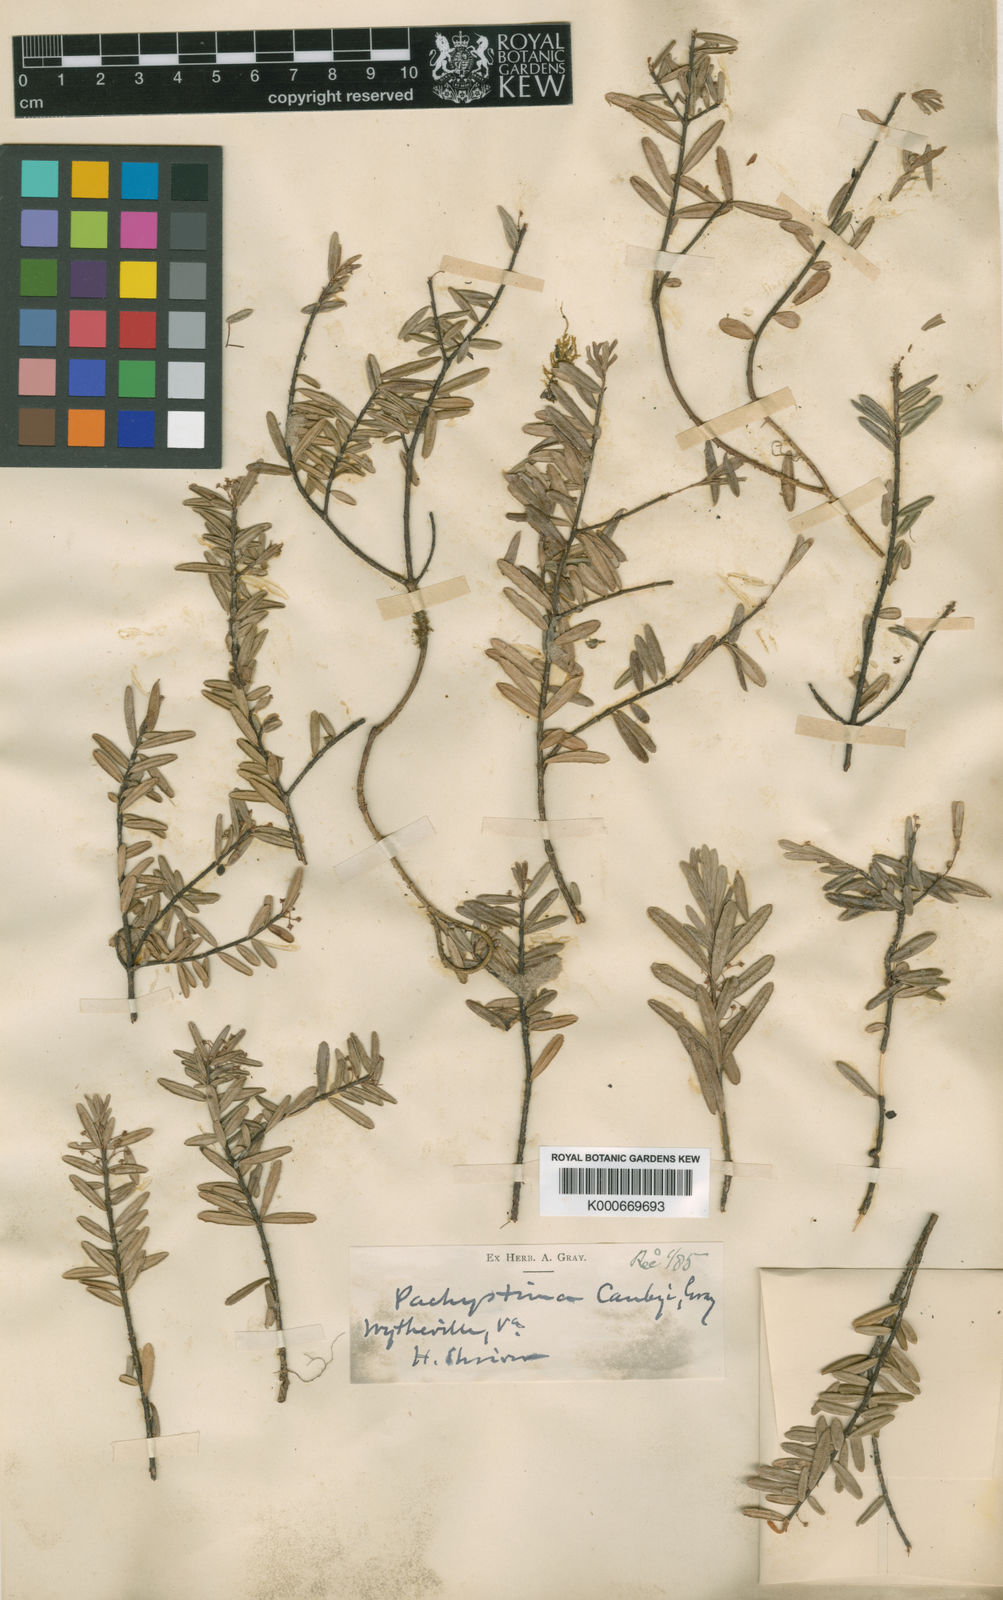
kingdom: Plantae
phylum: Tracheophyta
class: Magnoliopsida
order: Celastrales
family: Celastraceae
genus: Paxistima
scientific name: Paxistima canbyi
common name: Cliffgreen
